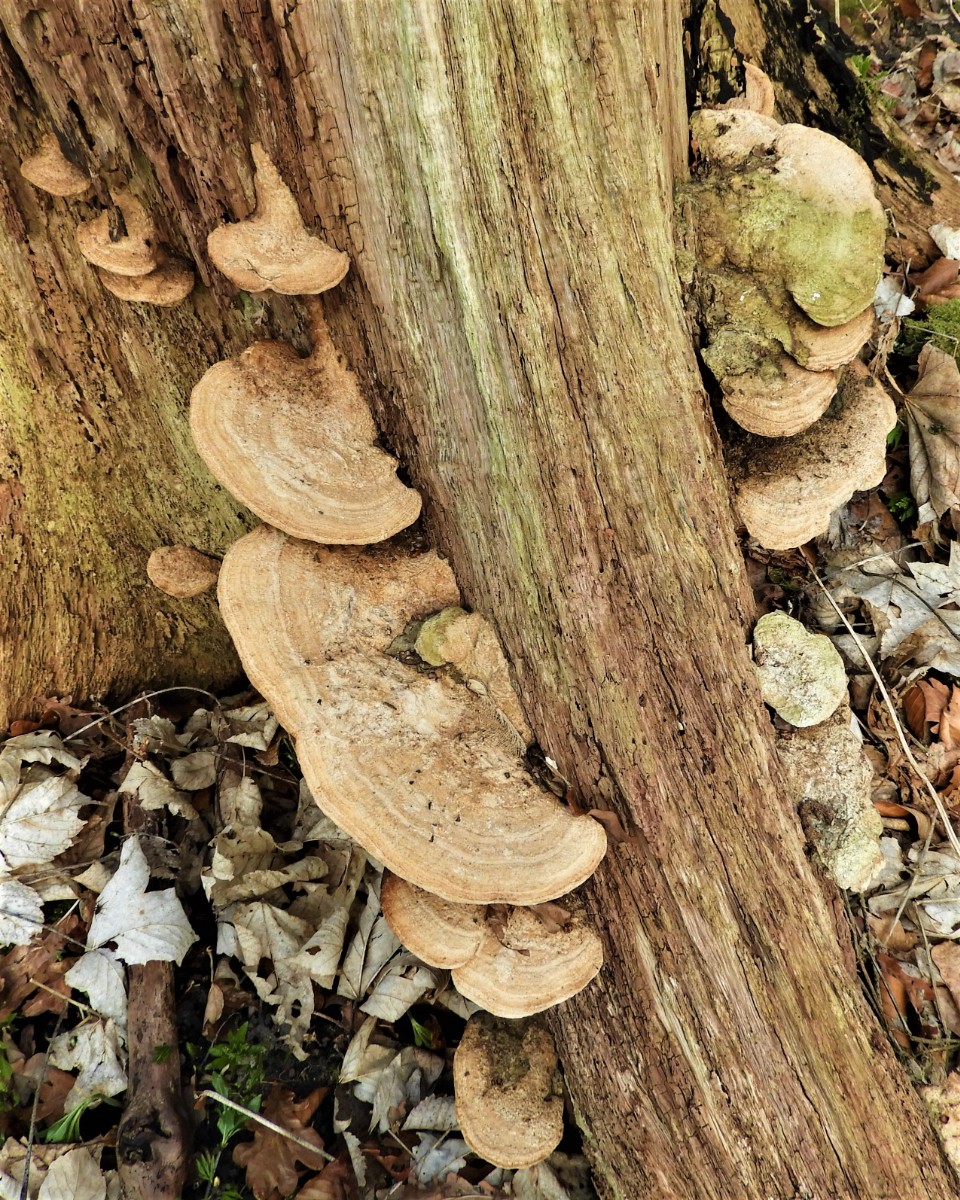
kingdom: Fungi
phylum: Basidiomycota
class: Agaricomycetes
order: Polyporales
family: Fomitopsidaceae
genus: Daedalea
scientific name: Daedalea quercina
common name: ege-labyrintsvamp
